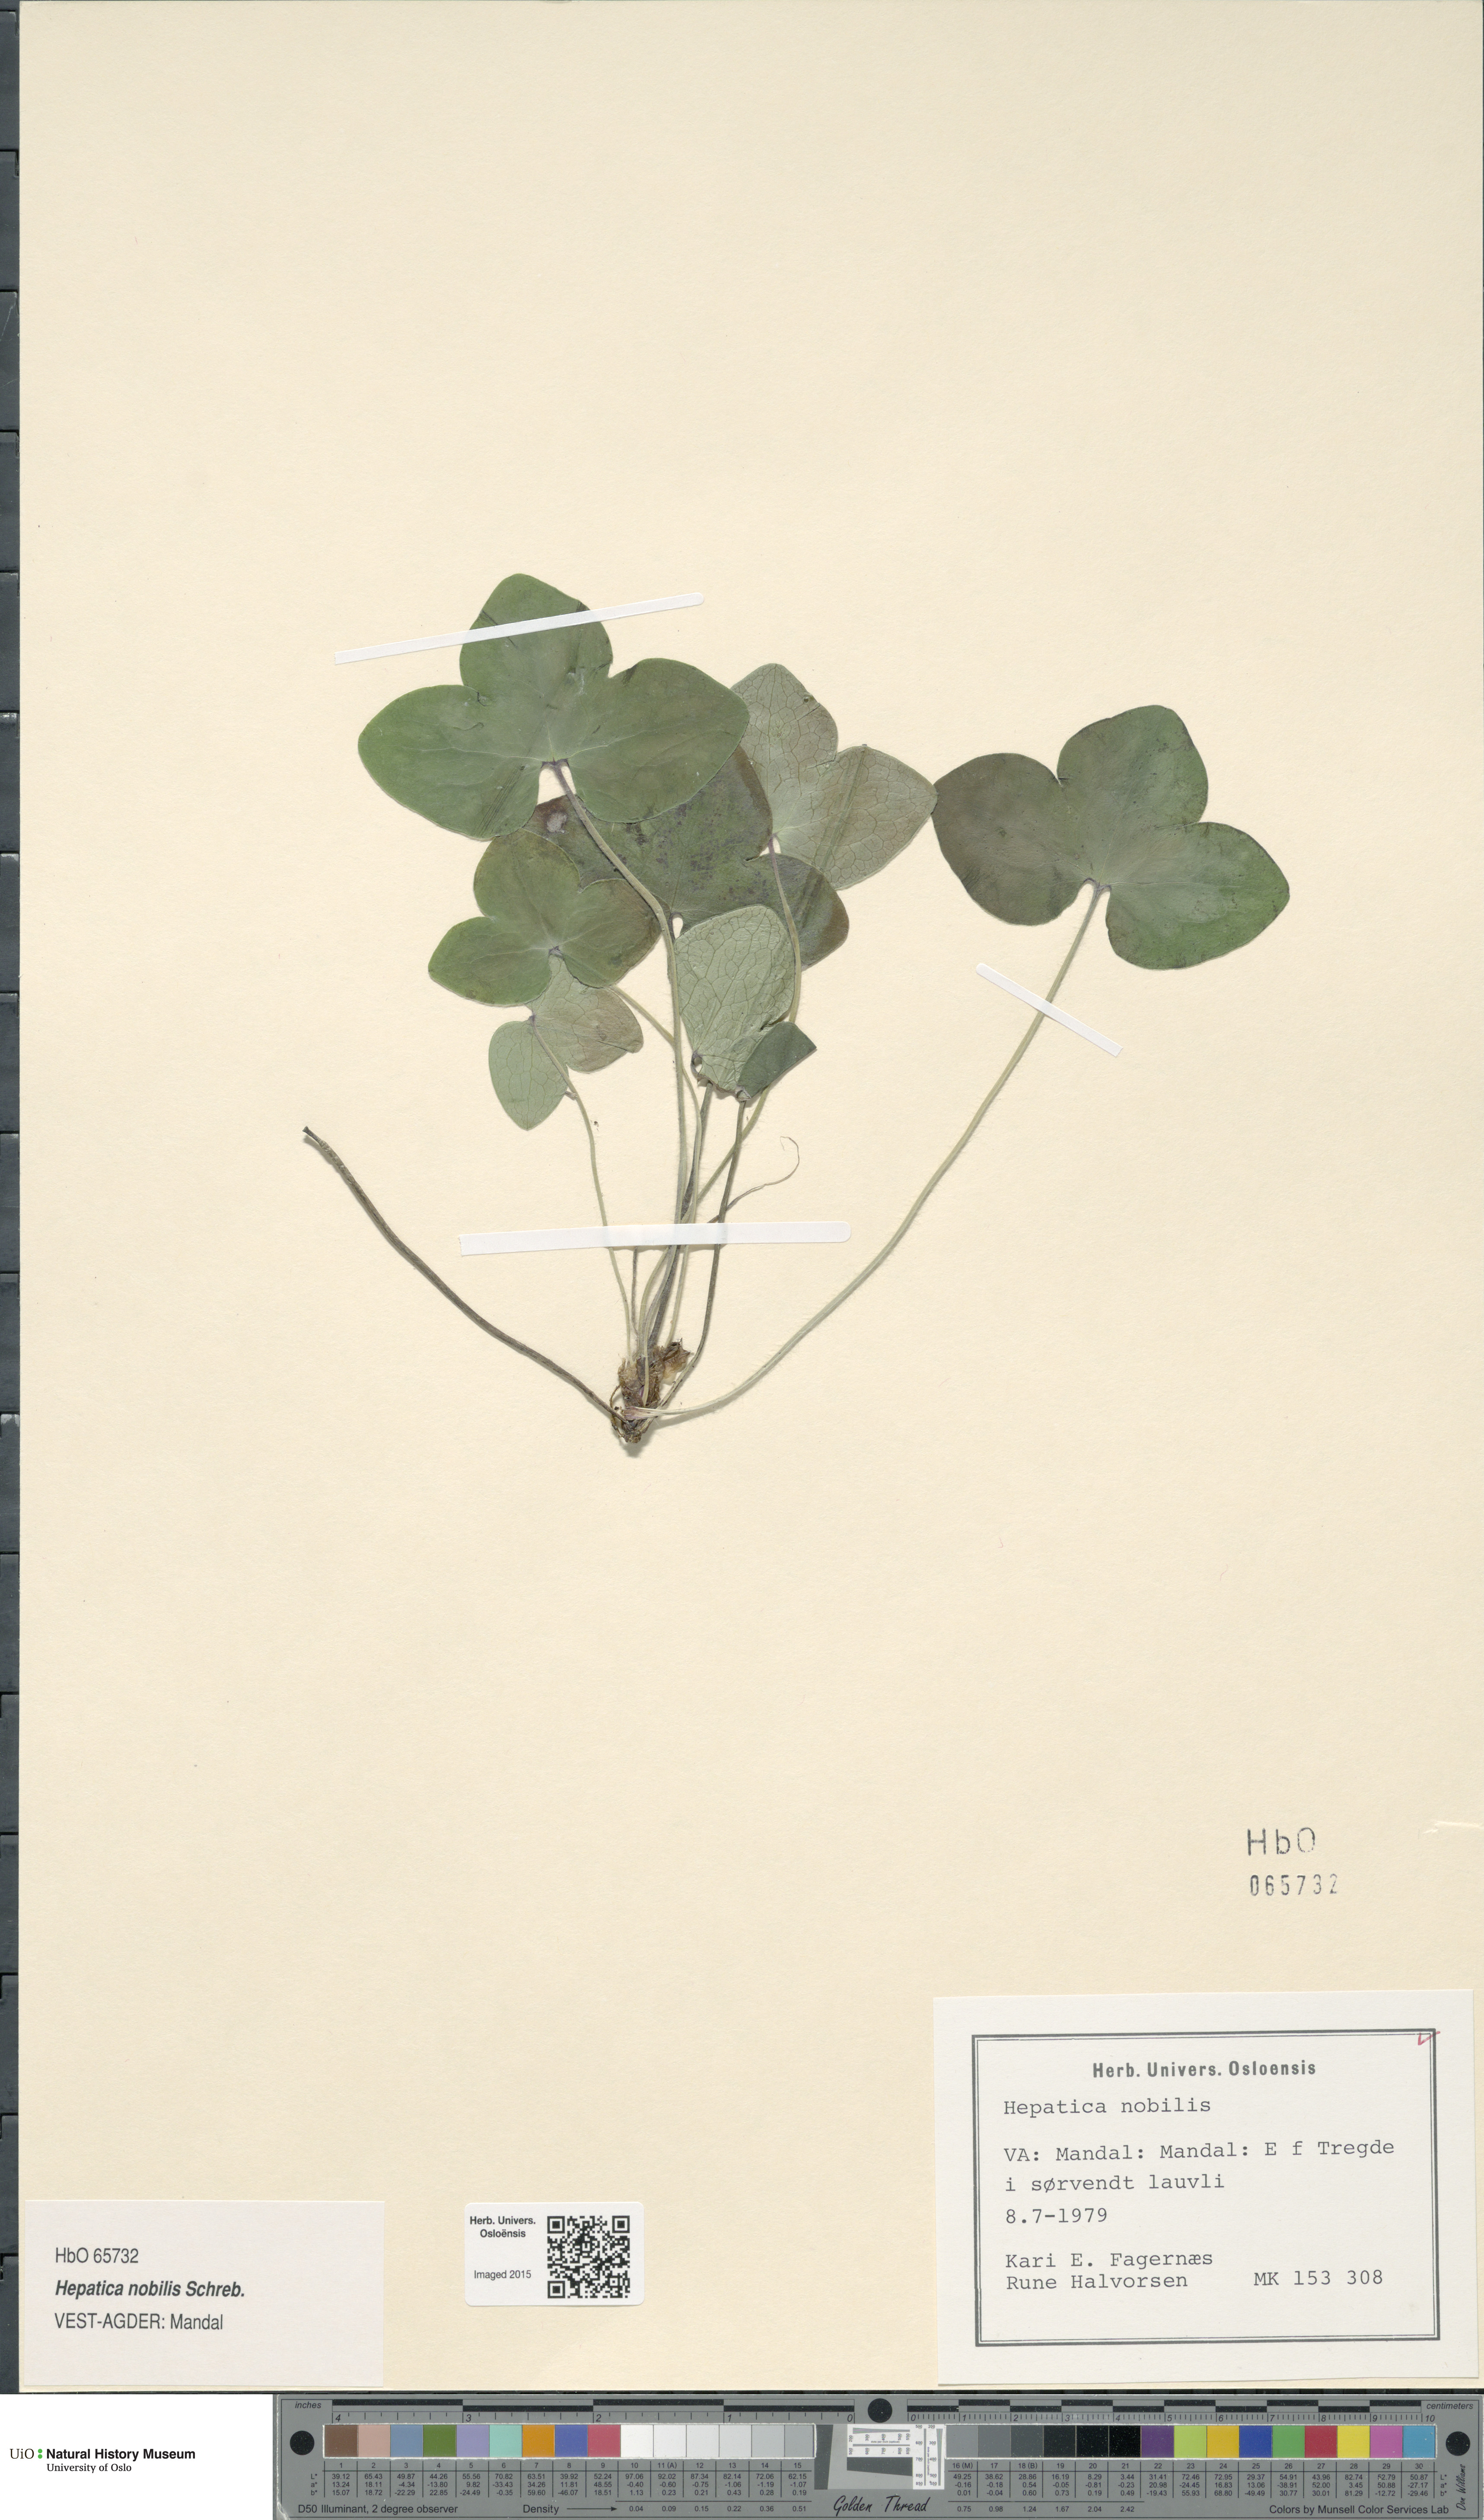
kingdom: Plantae
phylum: Tracheophyta
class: Magnoliopsida
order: Ranunculales
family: Ranunculaceae
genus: Hepatica
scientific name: Hepatica nobilis
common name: Liverleaf
